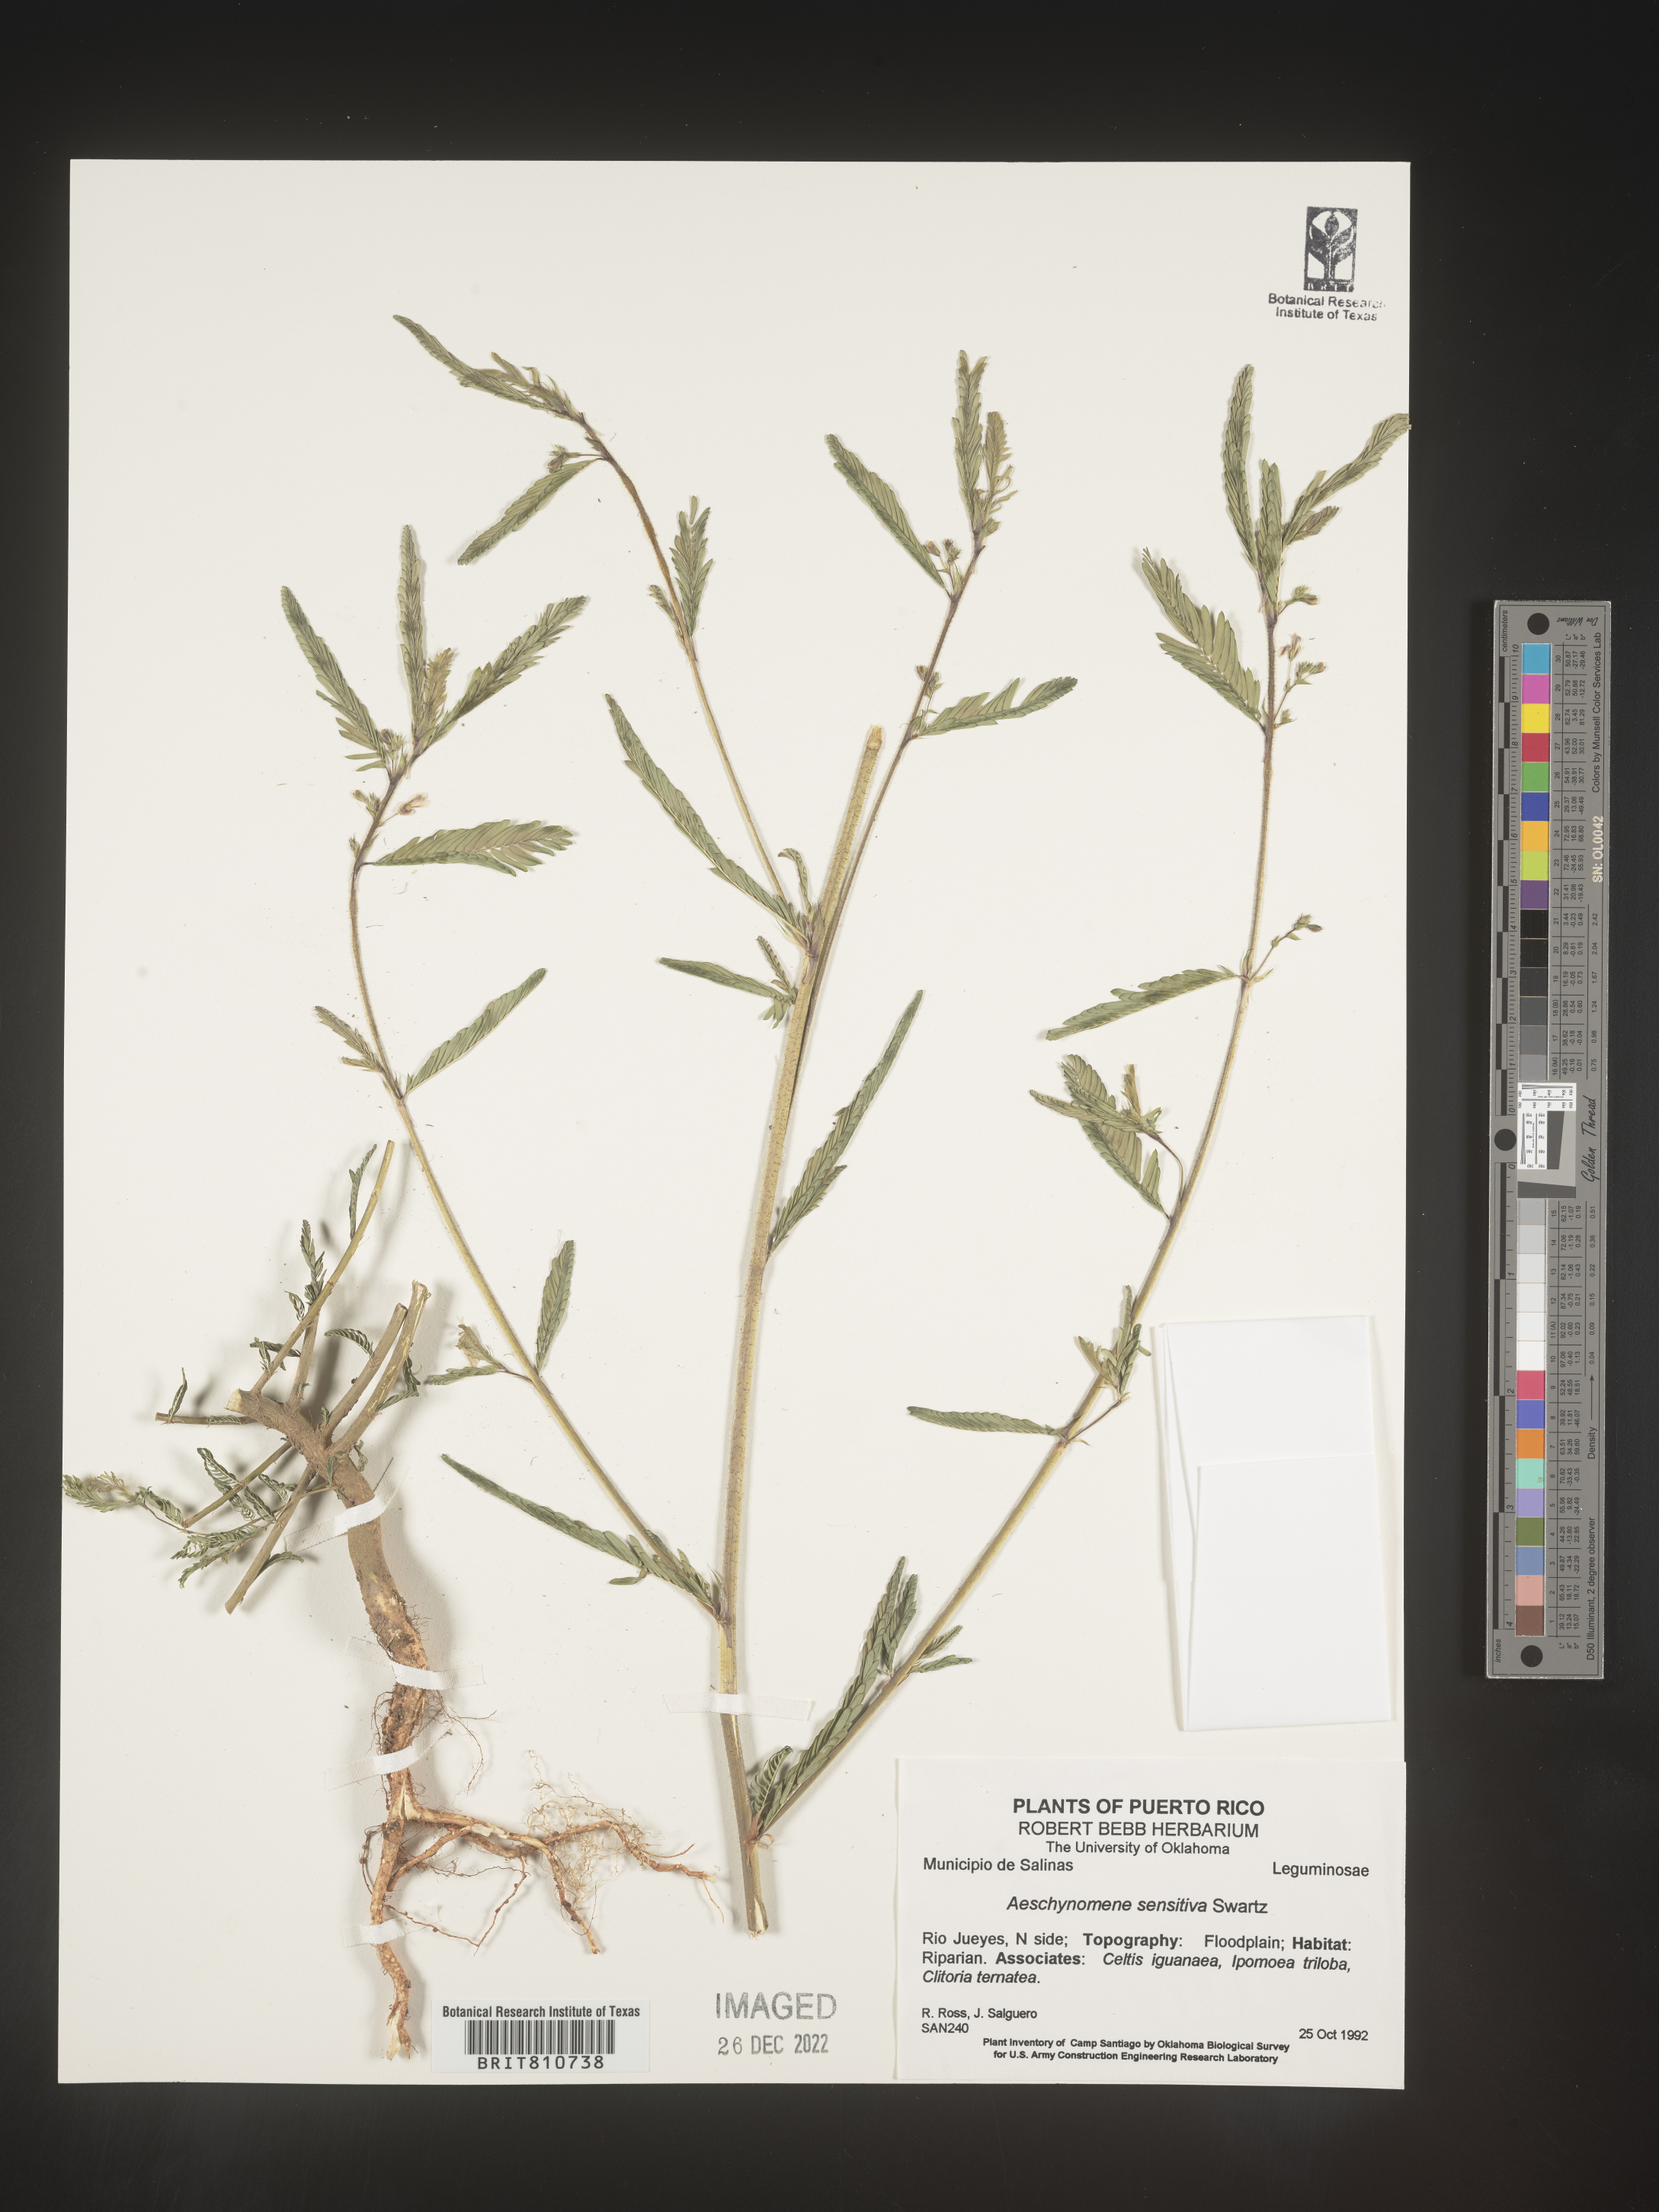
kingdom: Plantae
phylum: Tracheophyta
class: Magnoliopsida
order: Fabales
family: Fabaceae
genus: Aeschynomene
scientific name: Aeschynomene
